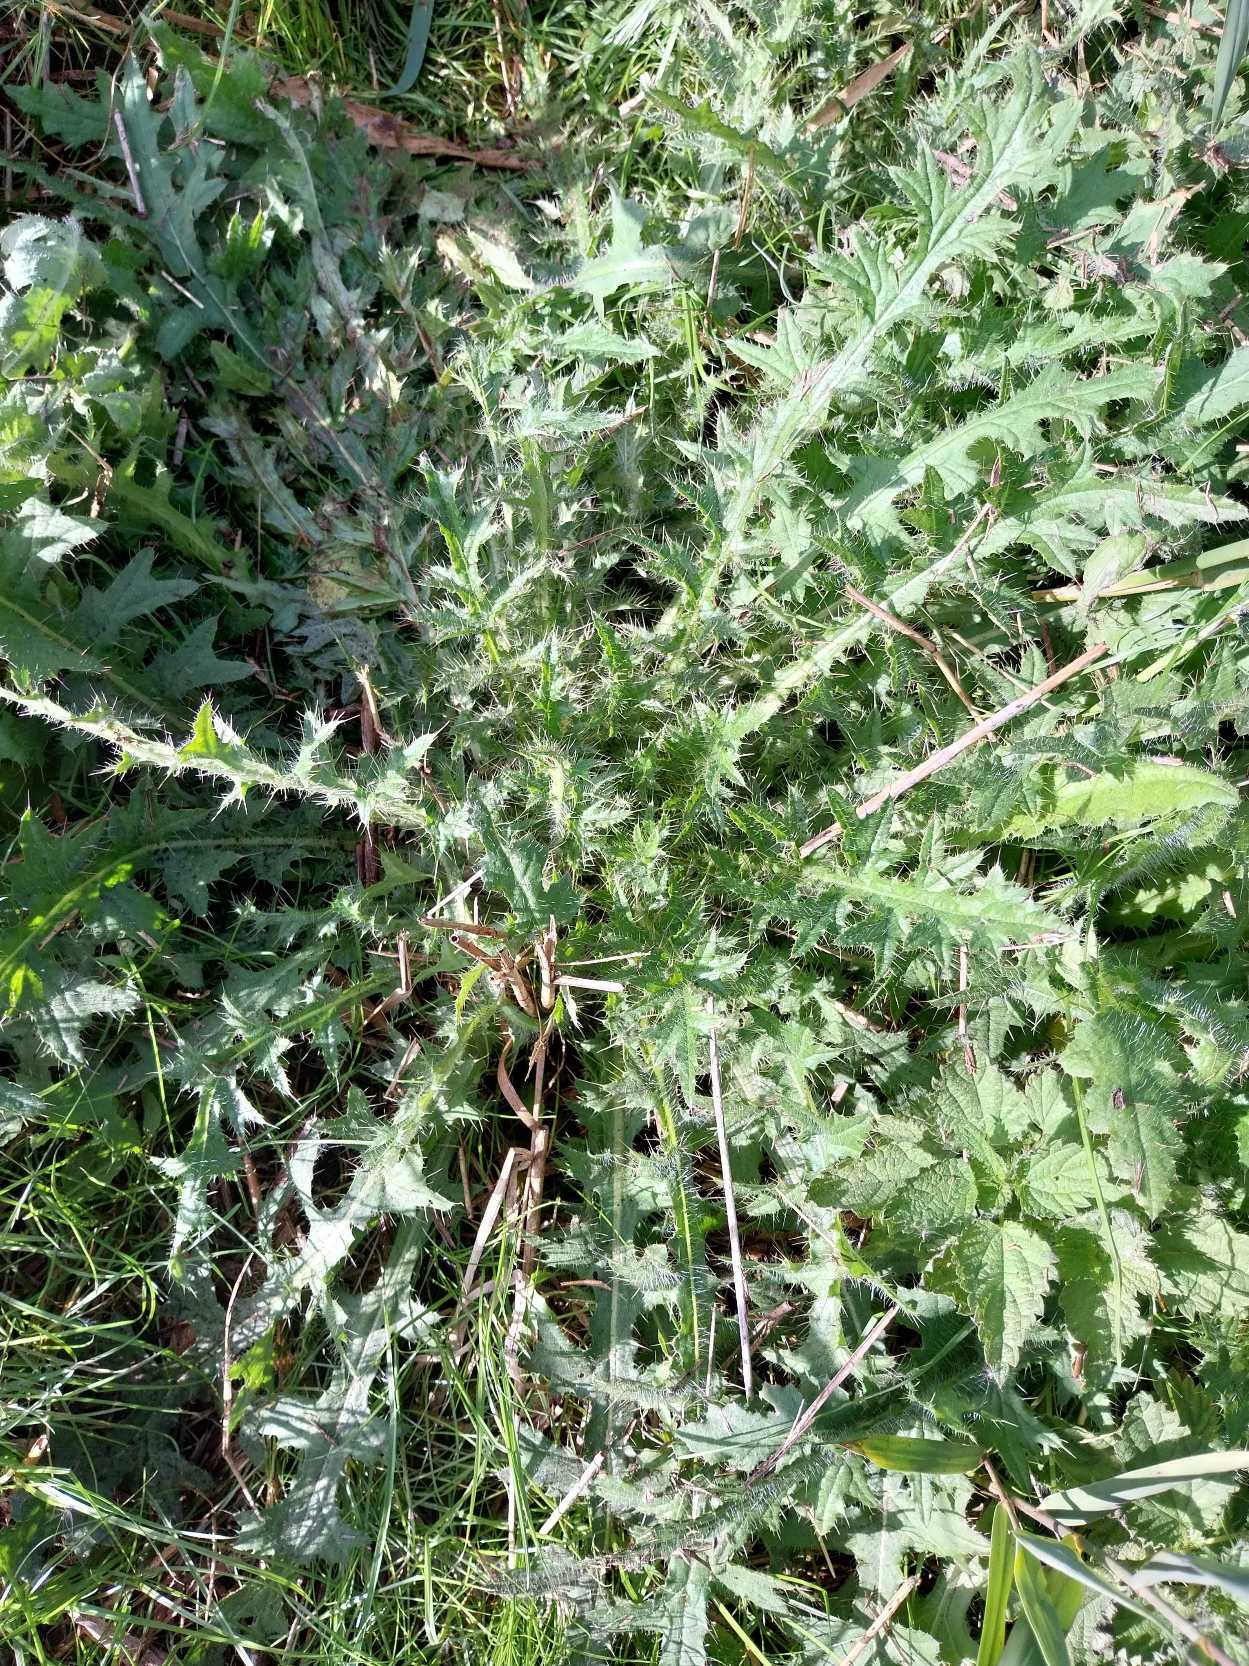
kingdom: Plantae
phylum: Tracheophyta
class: Magnoliopsida
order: Asterales
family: Asteraceae
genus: Cirsium
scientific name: Cirsium vulgare
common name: Horse-tidsel
